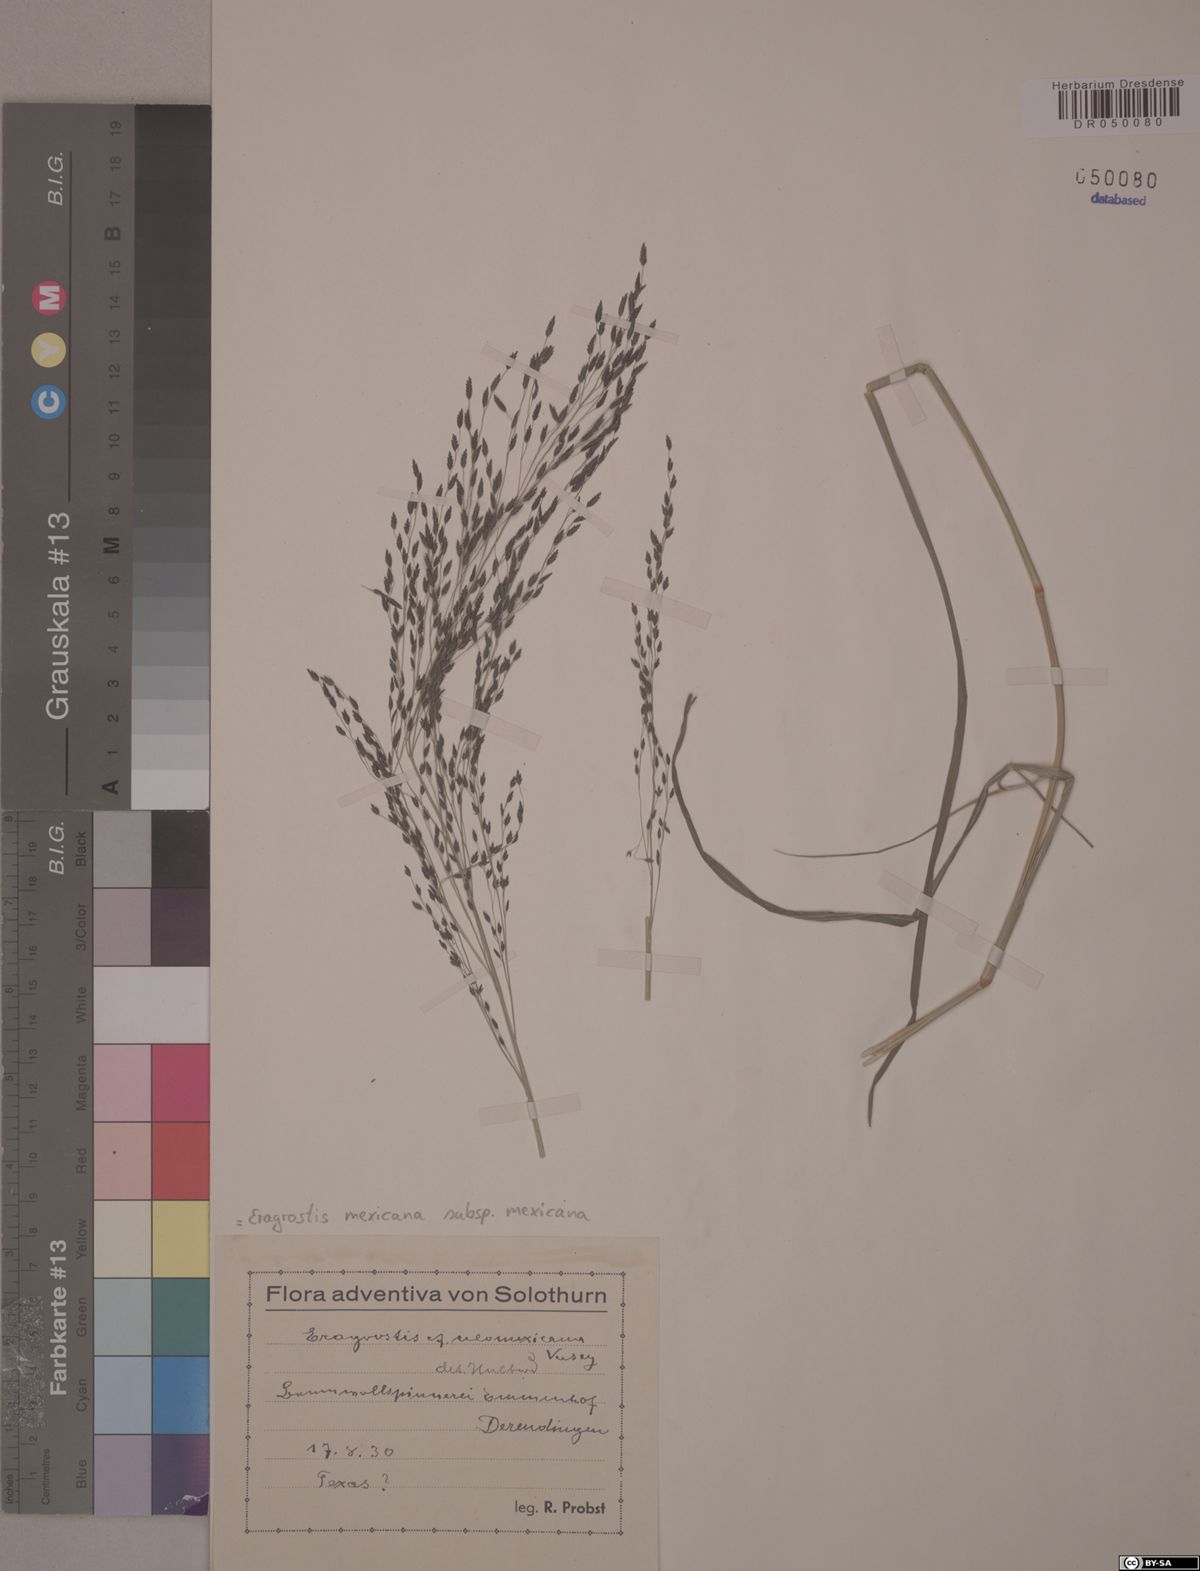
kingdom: Plantae
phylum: Tracheophyta
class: Liliopsida
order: Poales
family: Poaceae
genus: Eragrostis
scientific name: Eragrostis mexicana
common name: Mexican love grass
